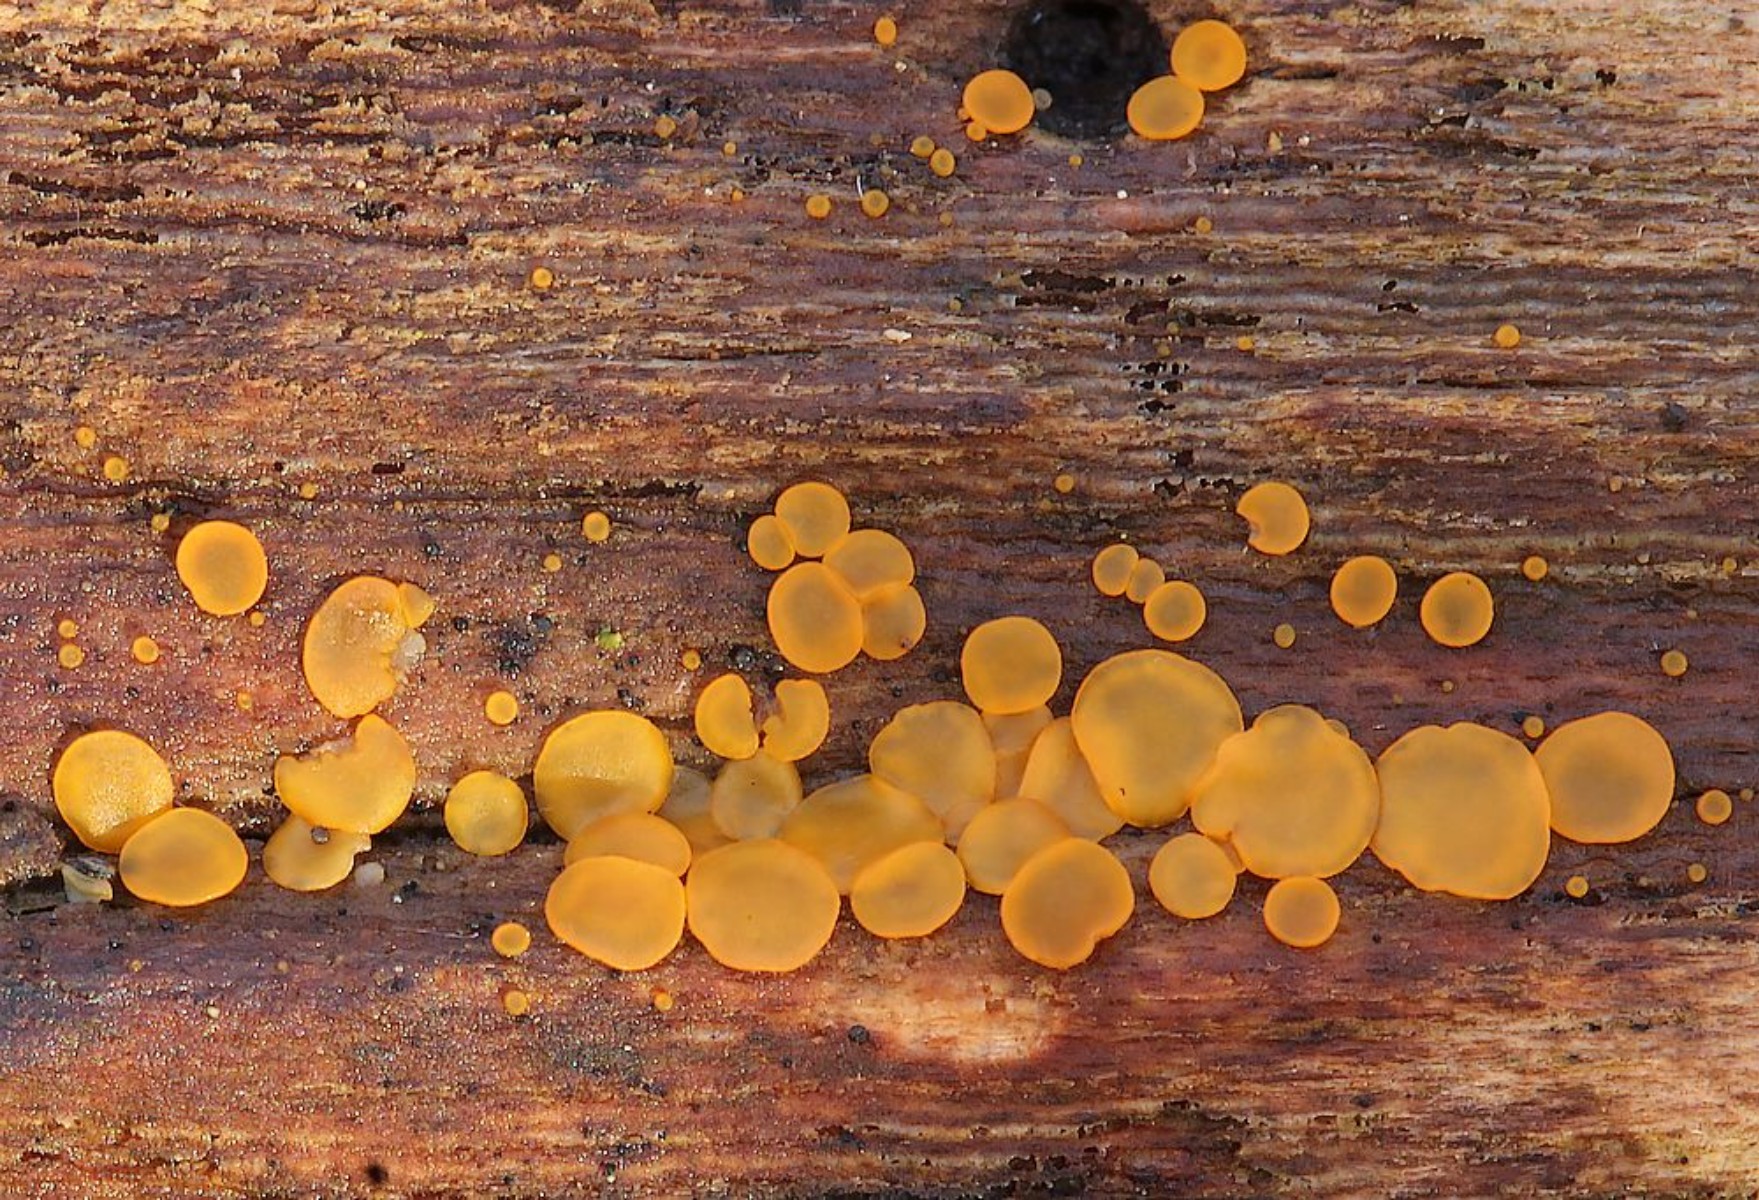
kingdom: Fungi
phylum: Ascomycota
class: Orbiliomycetes
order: Orbiliales
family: Orbiliaceae
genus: Orbilia
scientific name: Orbilia xanthostigma
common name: krumsporet voksskive
